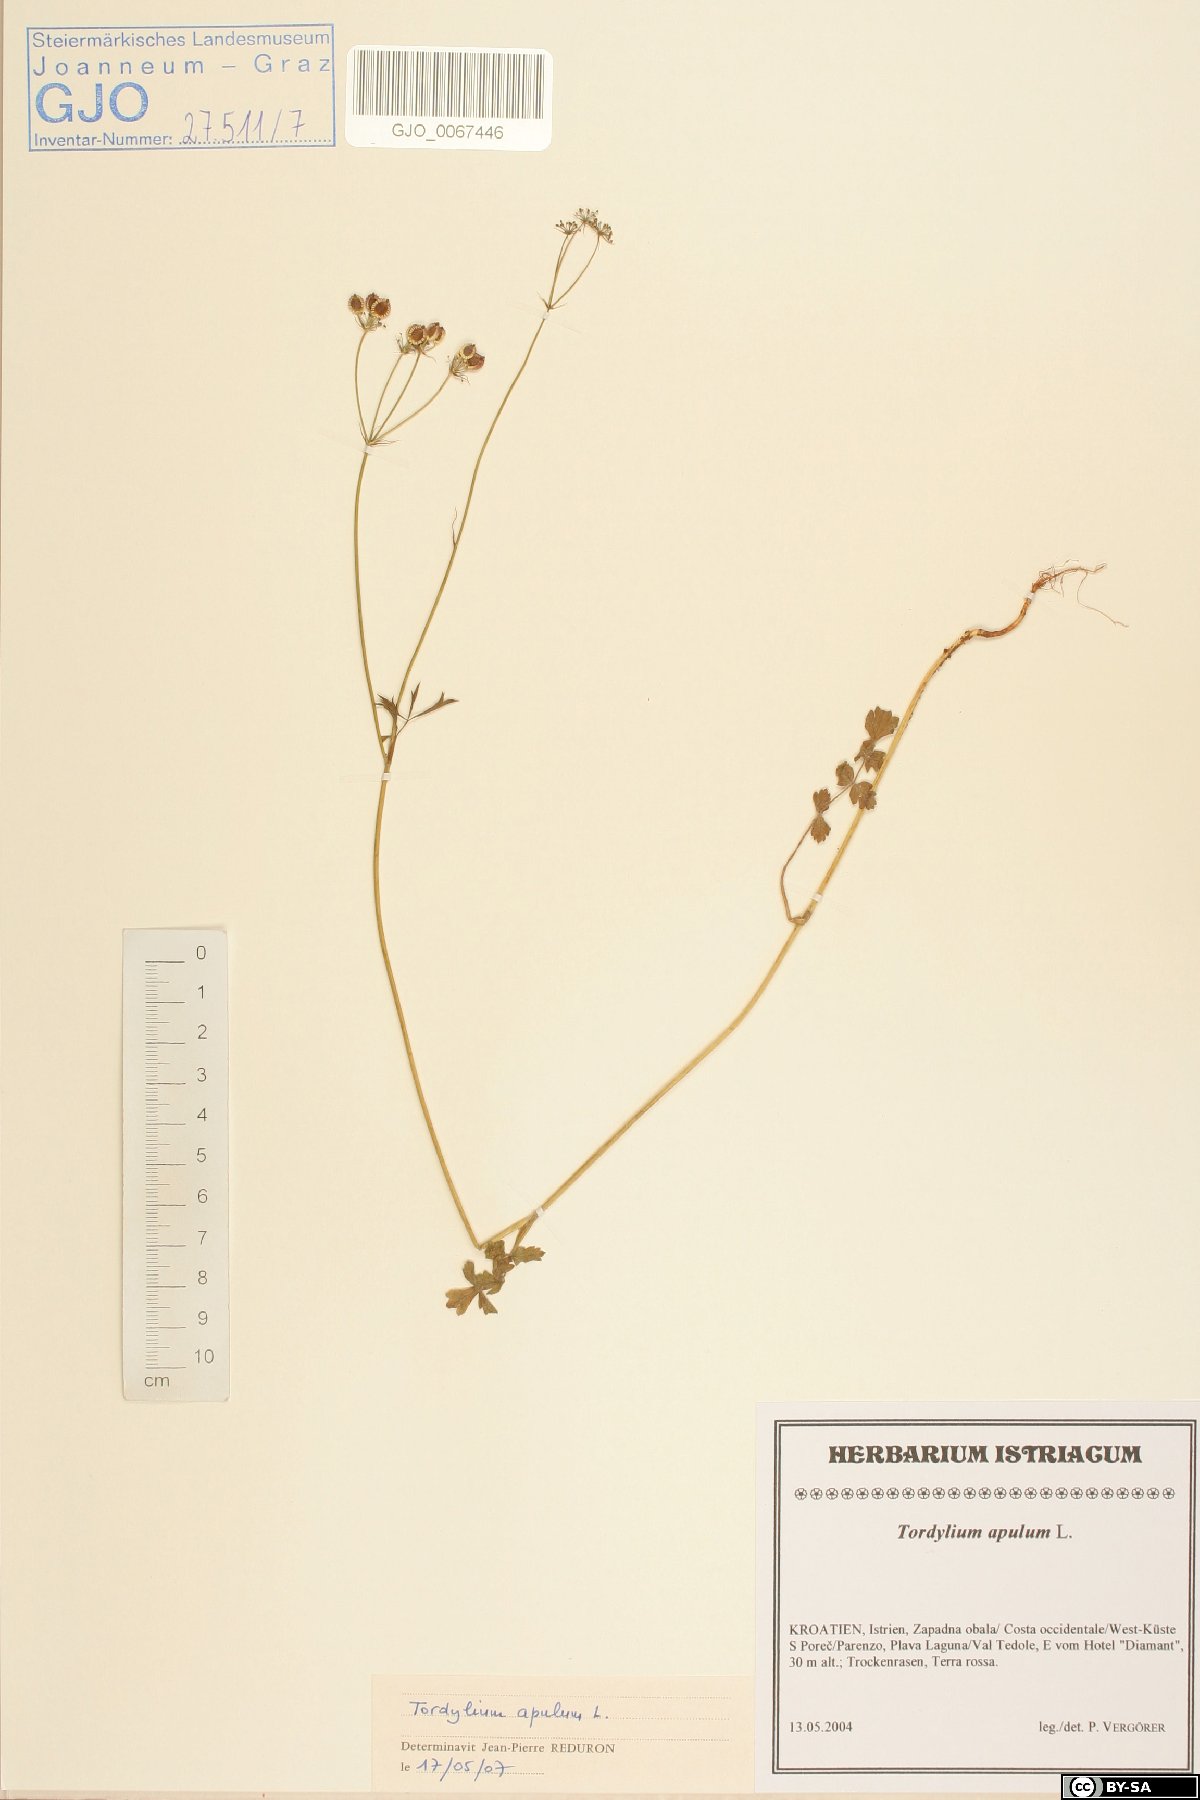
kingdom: Plantae
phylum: Tracheophyta
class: Magnoliopsida
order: Apiales
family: Apiaceae
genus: Tordylium
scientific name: Tordylium apulum
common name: Mediterranean hartwort
